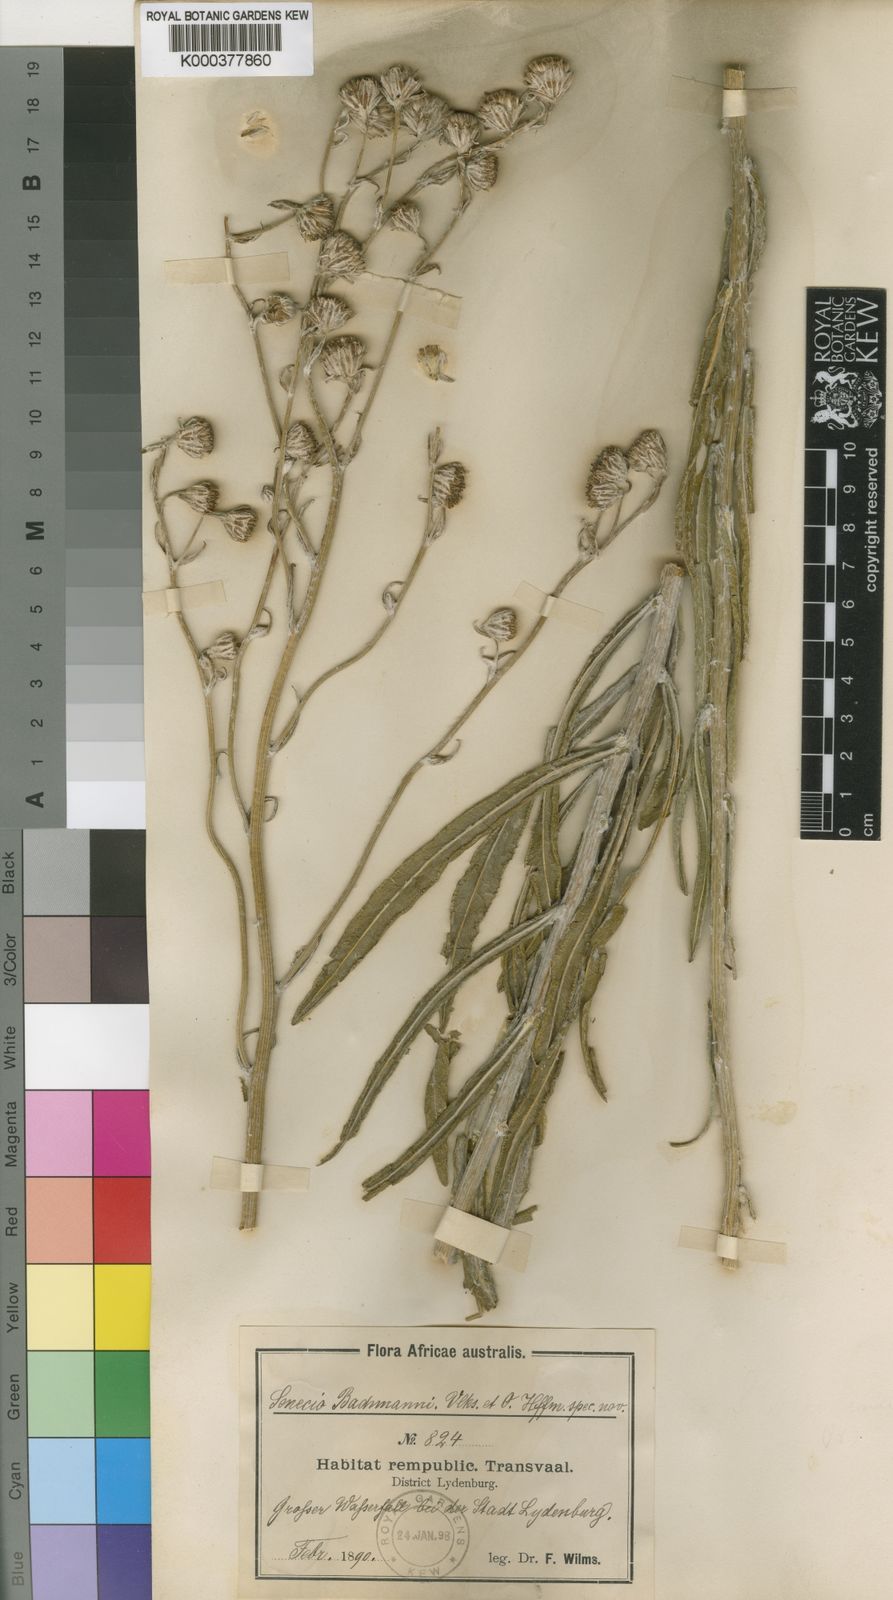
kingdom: Plantae
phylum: Tracheophyta
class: Magnoliopsida
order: Asterales
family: Asteraceae
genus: Senecio
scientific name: Senecio
